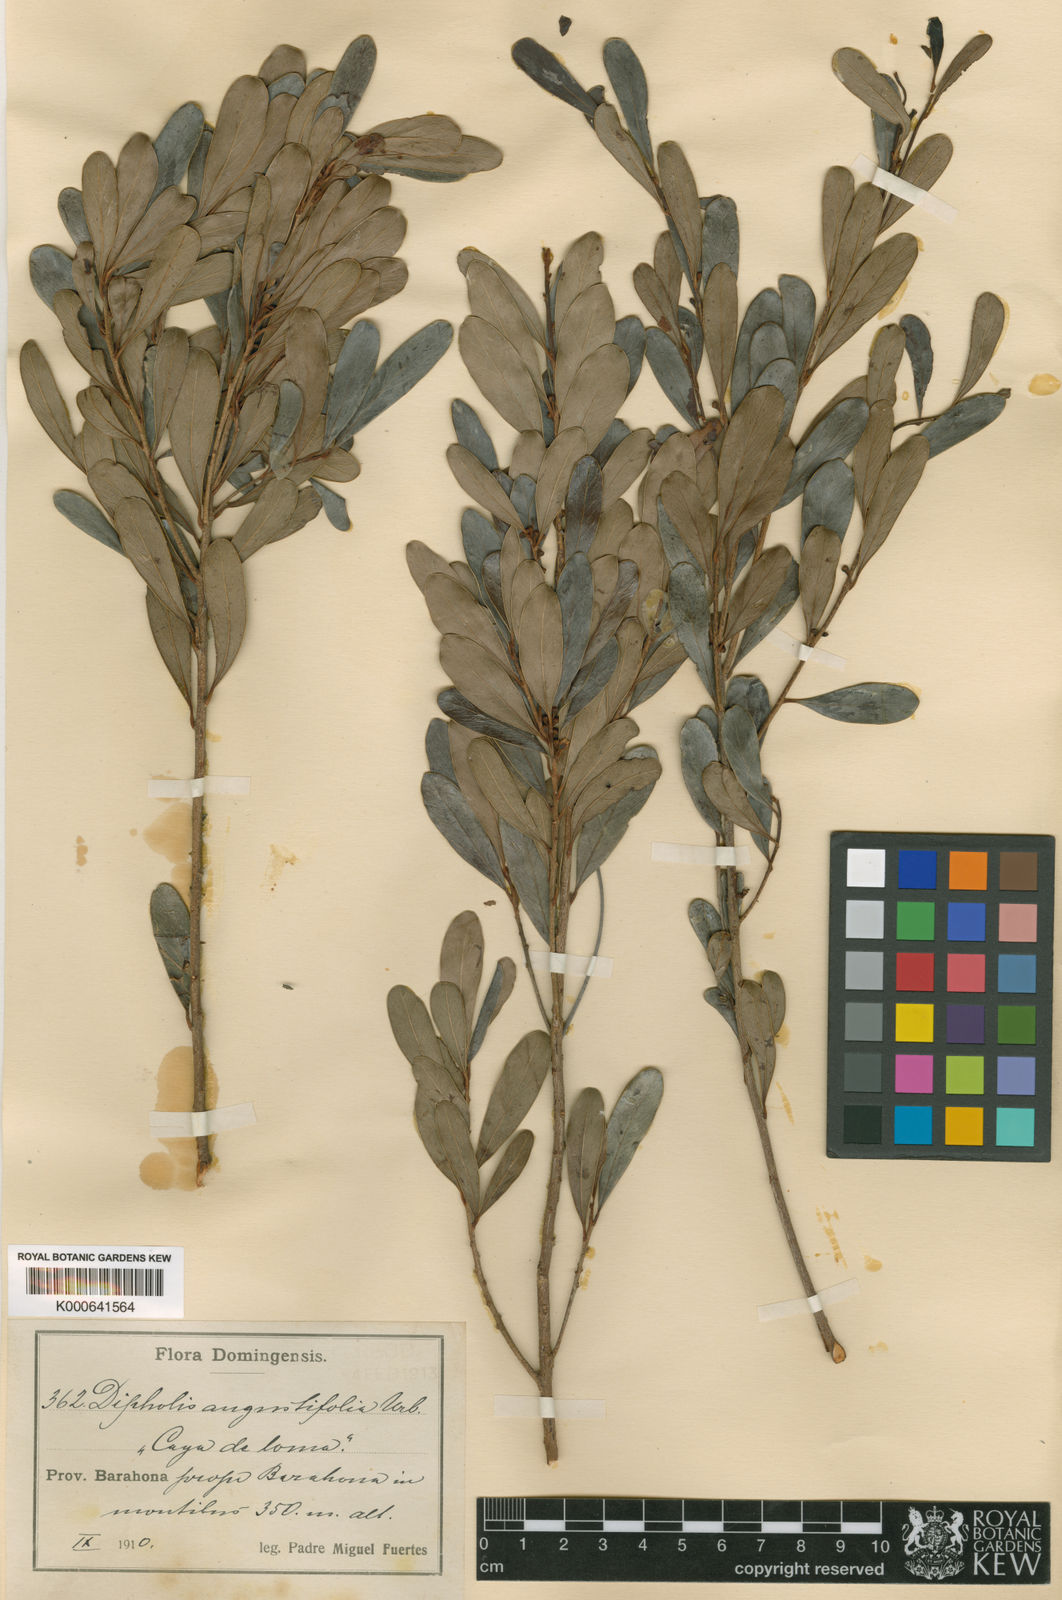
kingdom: Plantae
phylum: Tracheophyta
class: Magnoliopsida
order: Ericales
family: Sapotaceae
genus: Sideroxylon
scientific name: Sideroxylon cubense
